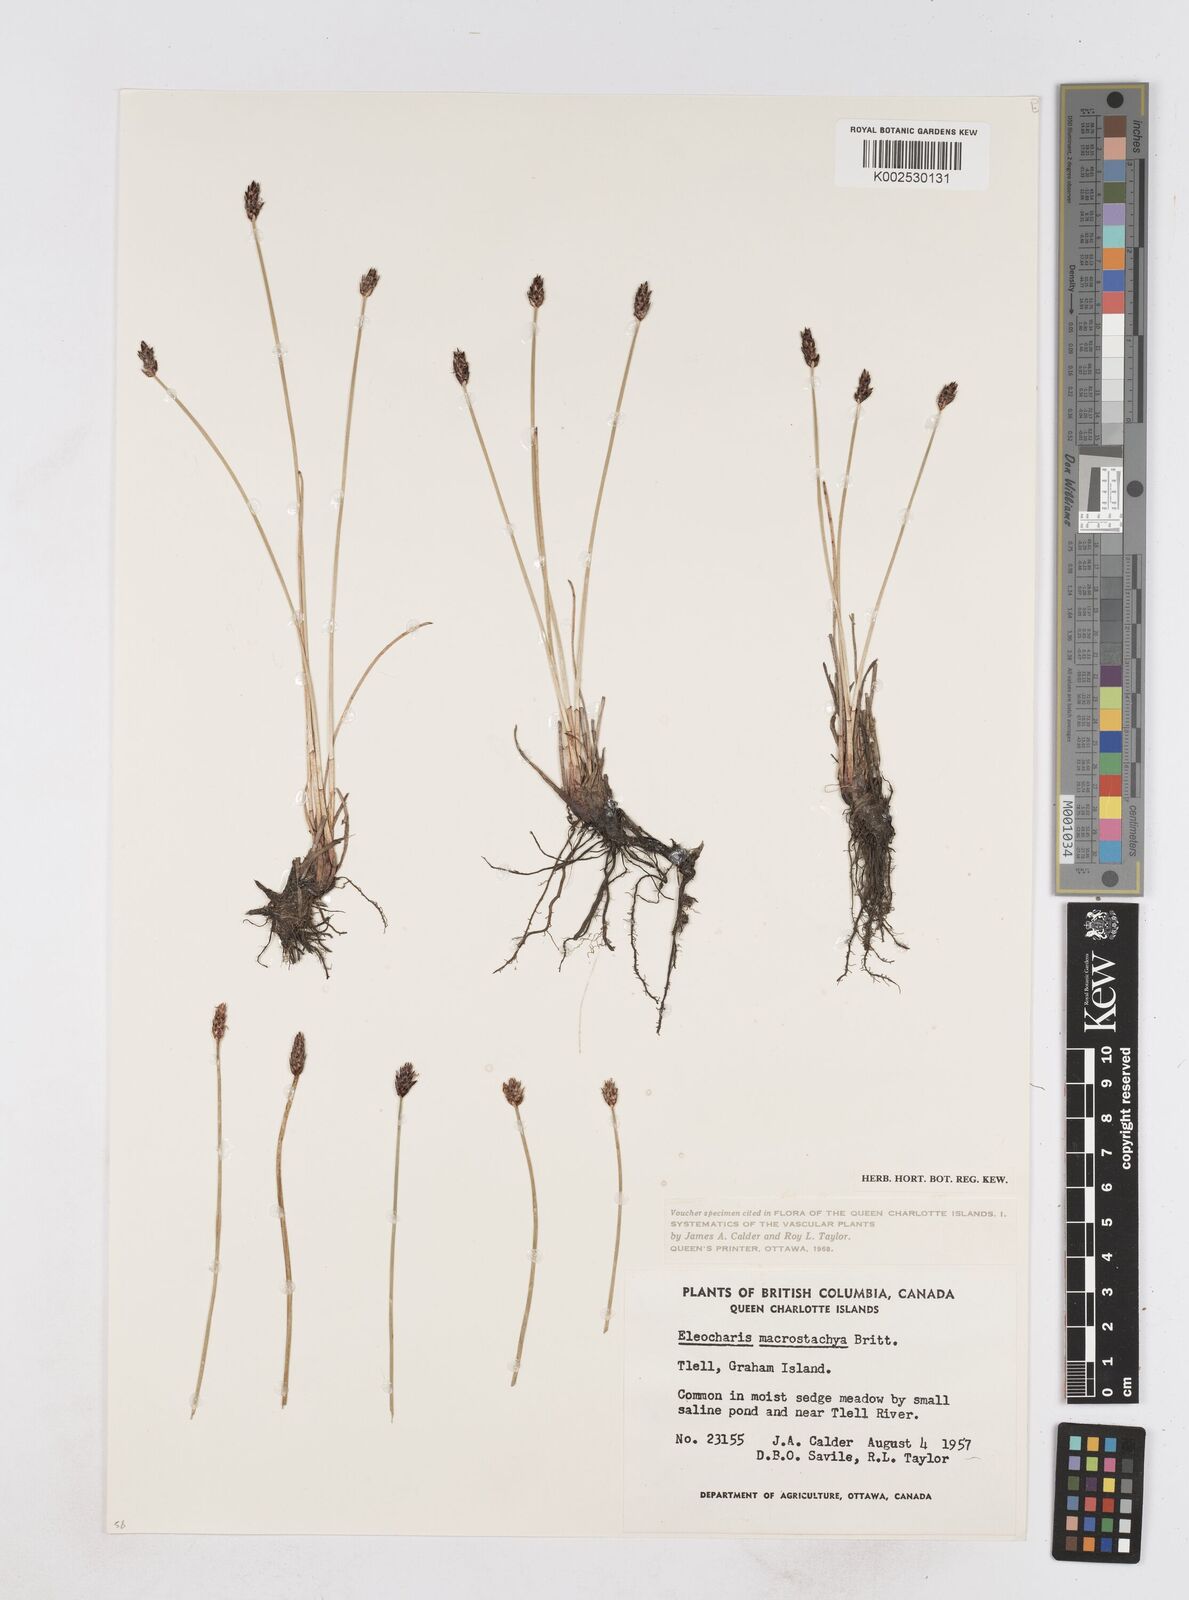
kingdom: Plantae
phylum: Tracheophyta
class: Liliopsida
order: Poales
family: Cyperaceae
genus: Eleocharis
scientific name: Eleocharis macrostachya
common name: Pale spikerush
